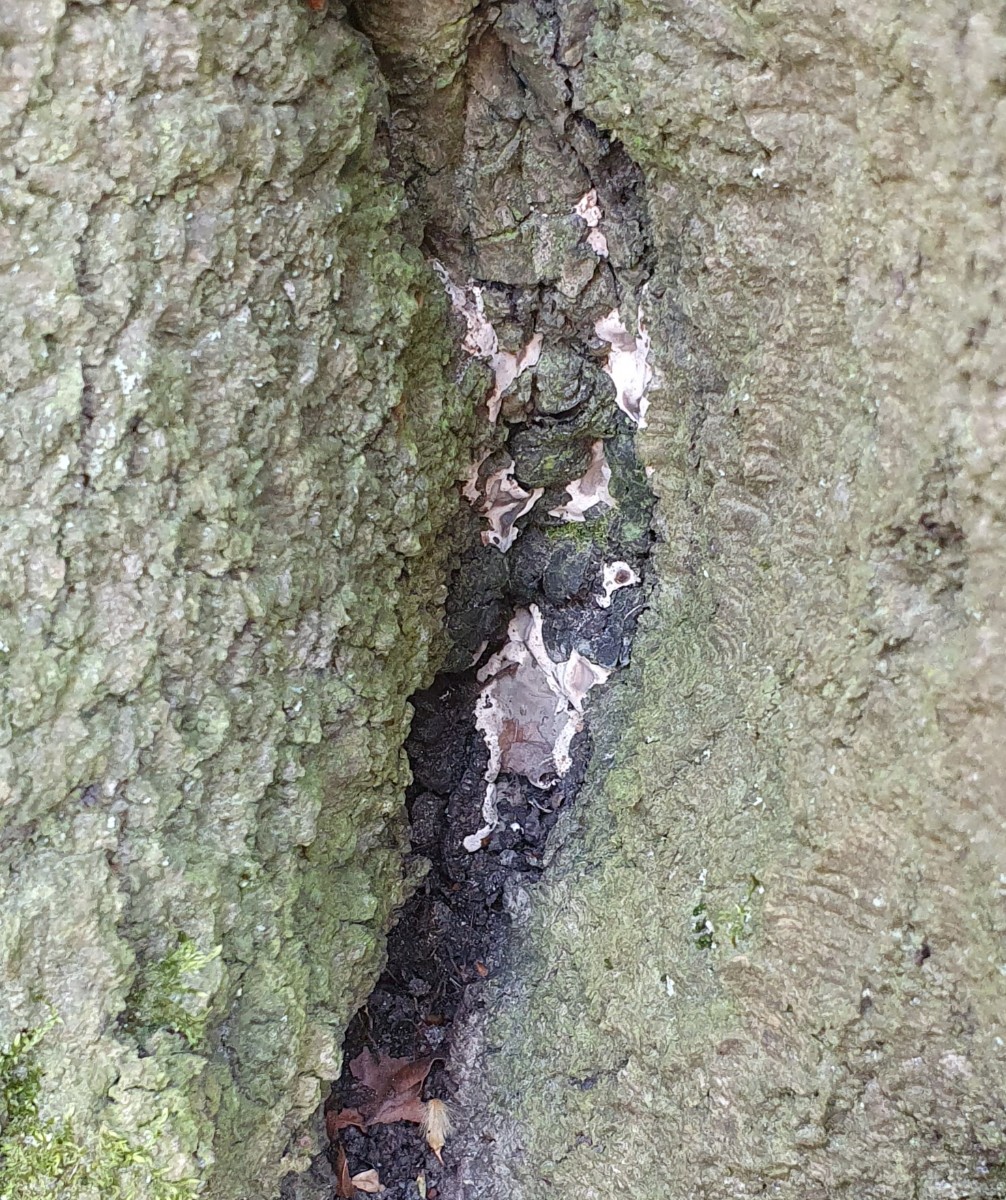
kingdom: Fungi
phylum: Ascomycota
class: Sordariomycetes
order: Xylariales
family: Xylariaceae
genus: Kretzschmaria
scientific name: Kretzschmaria deusta
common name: stor kulsvamp
